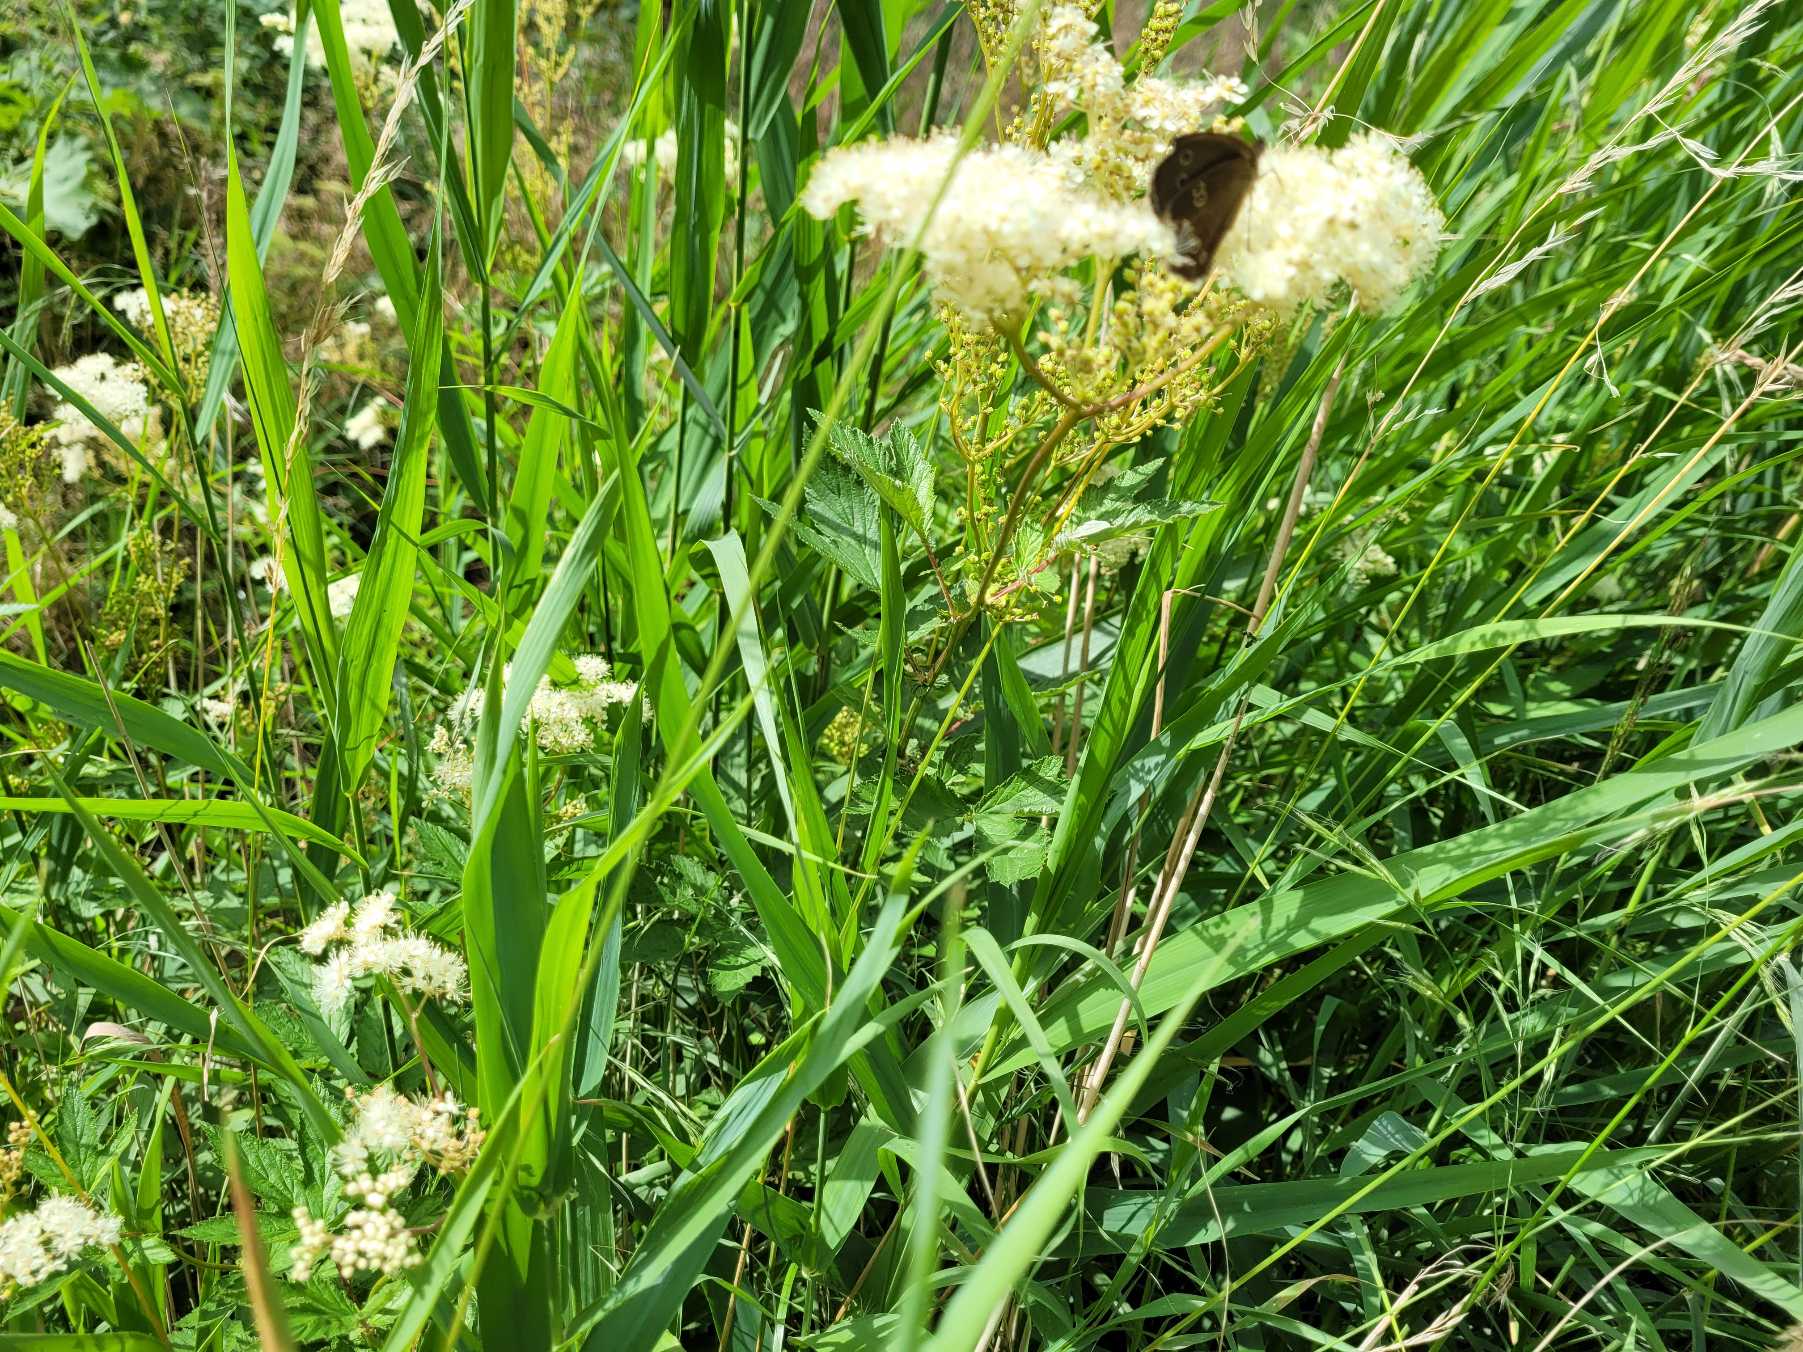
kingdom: Animalia
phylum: Arthropoda
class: Insecta
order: Lepidoptera
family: Nymphalidae
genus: Aphantopus
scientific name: Aphantopus hyperantus
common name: Engrandøje
